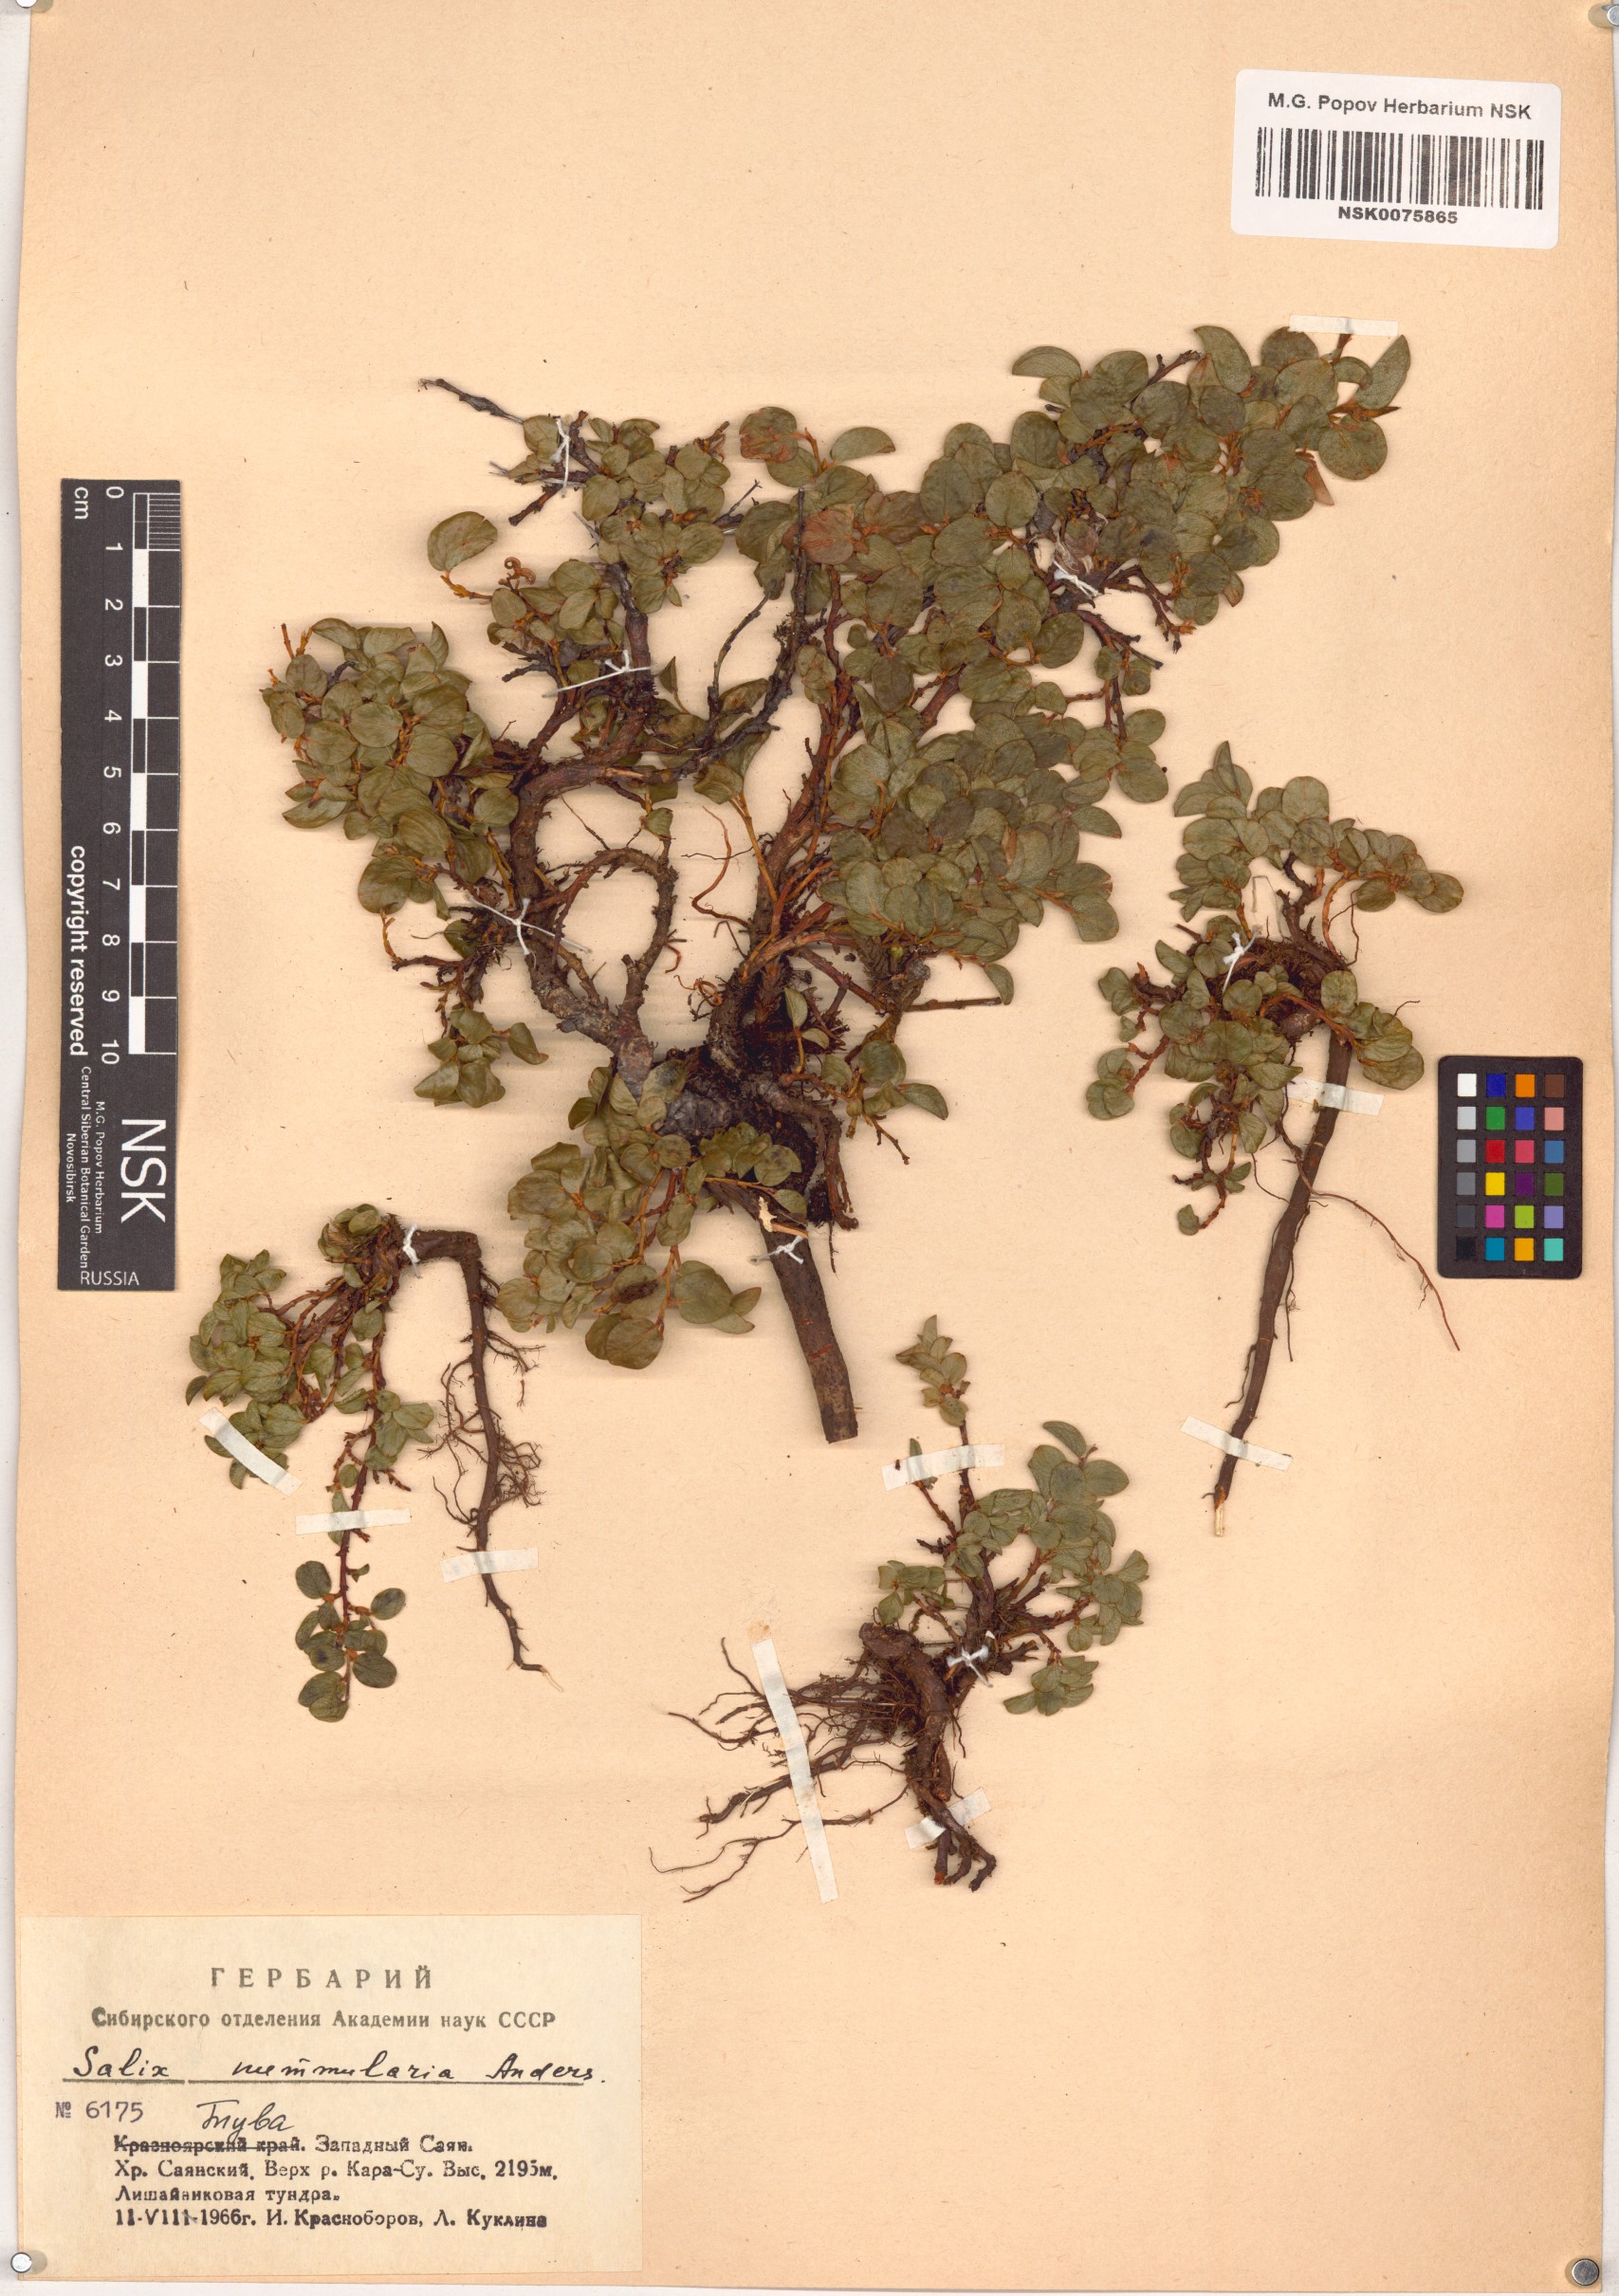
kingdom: Plantae
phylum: Tracheophyta
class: Magnoliopsida
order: Malpighiales
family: Salicaceae
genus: Salix
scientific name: Salix nummularia
